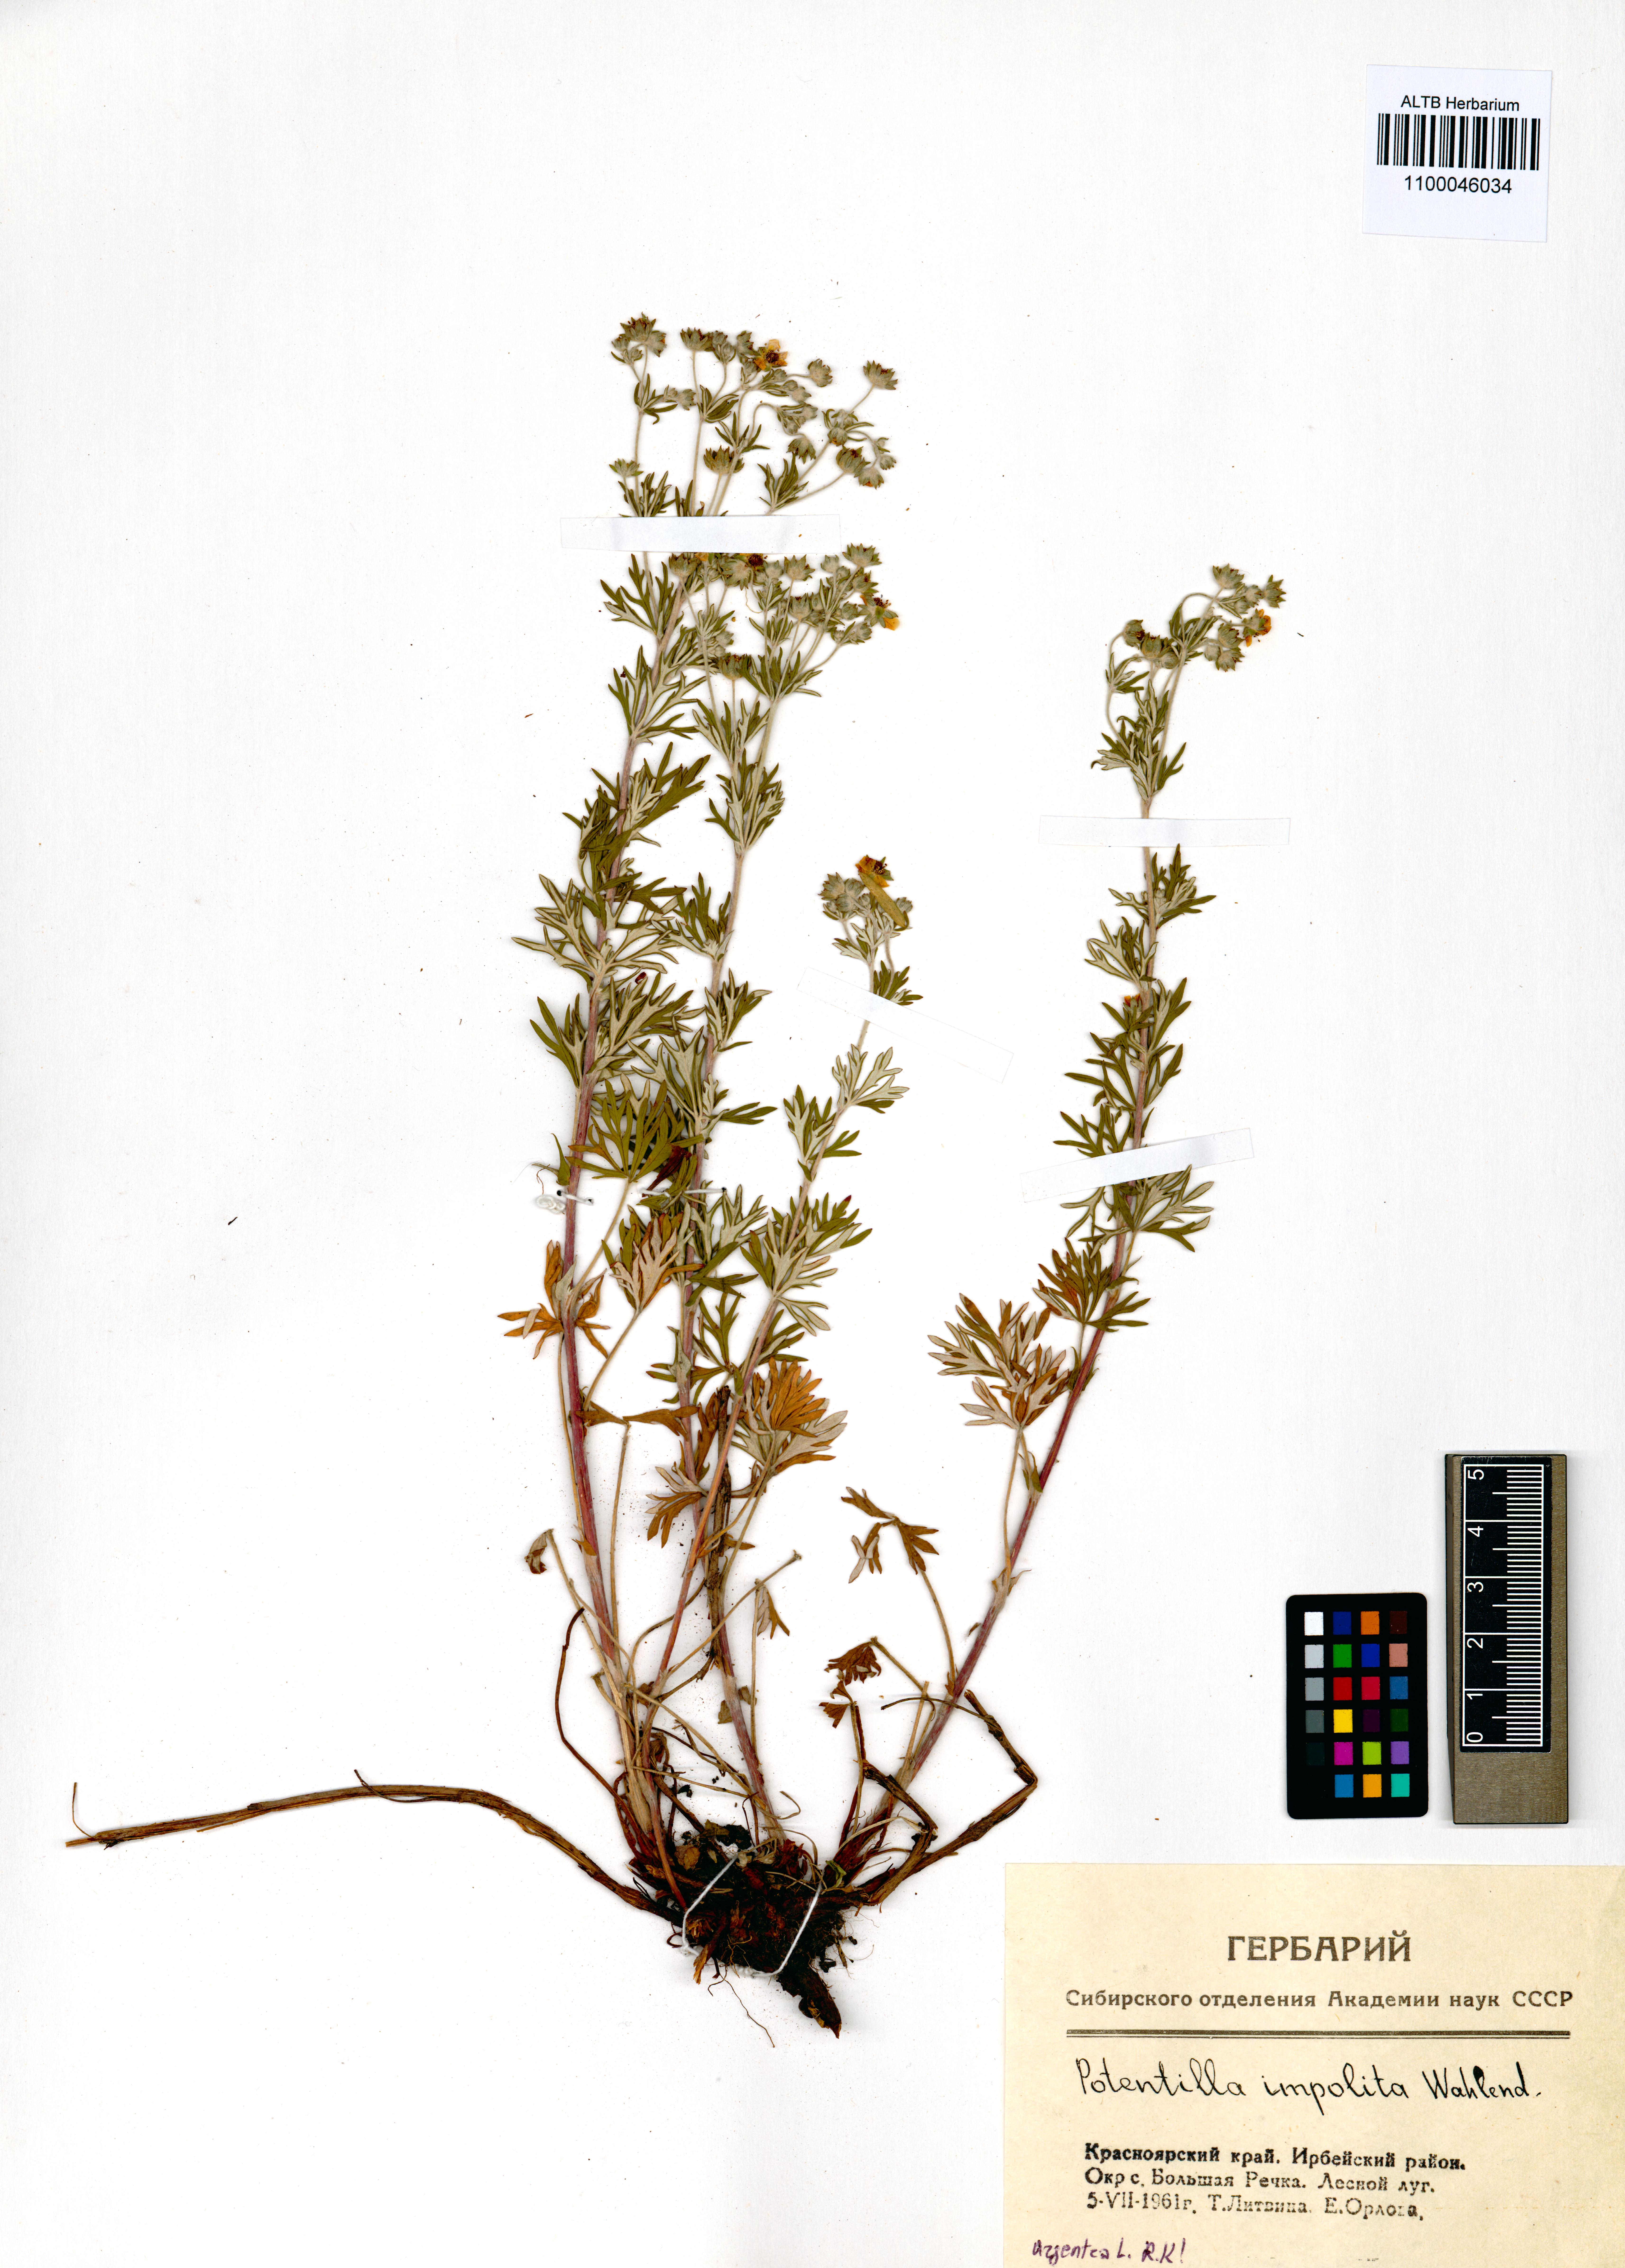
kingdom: Plantae
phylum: Tracheophyta
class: Magnoliopsida
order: Rosales
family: Rosaceae
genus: Potentilla
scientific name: Potentilla argentea
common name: Hoary cinquefoil
